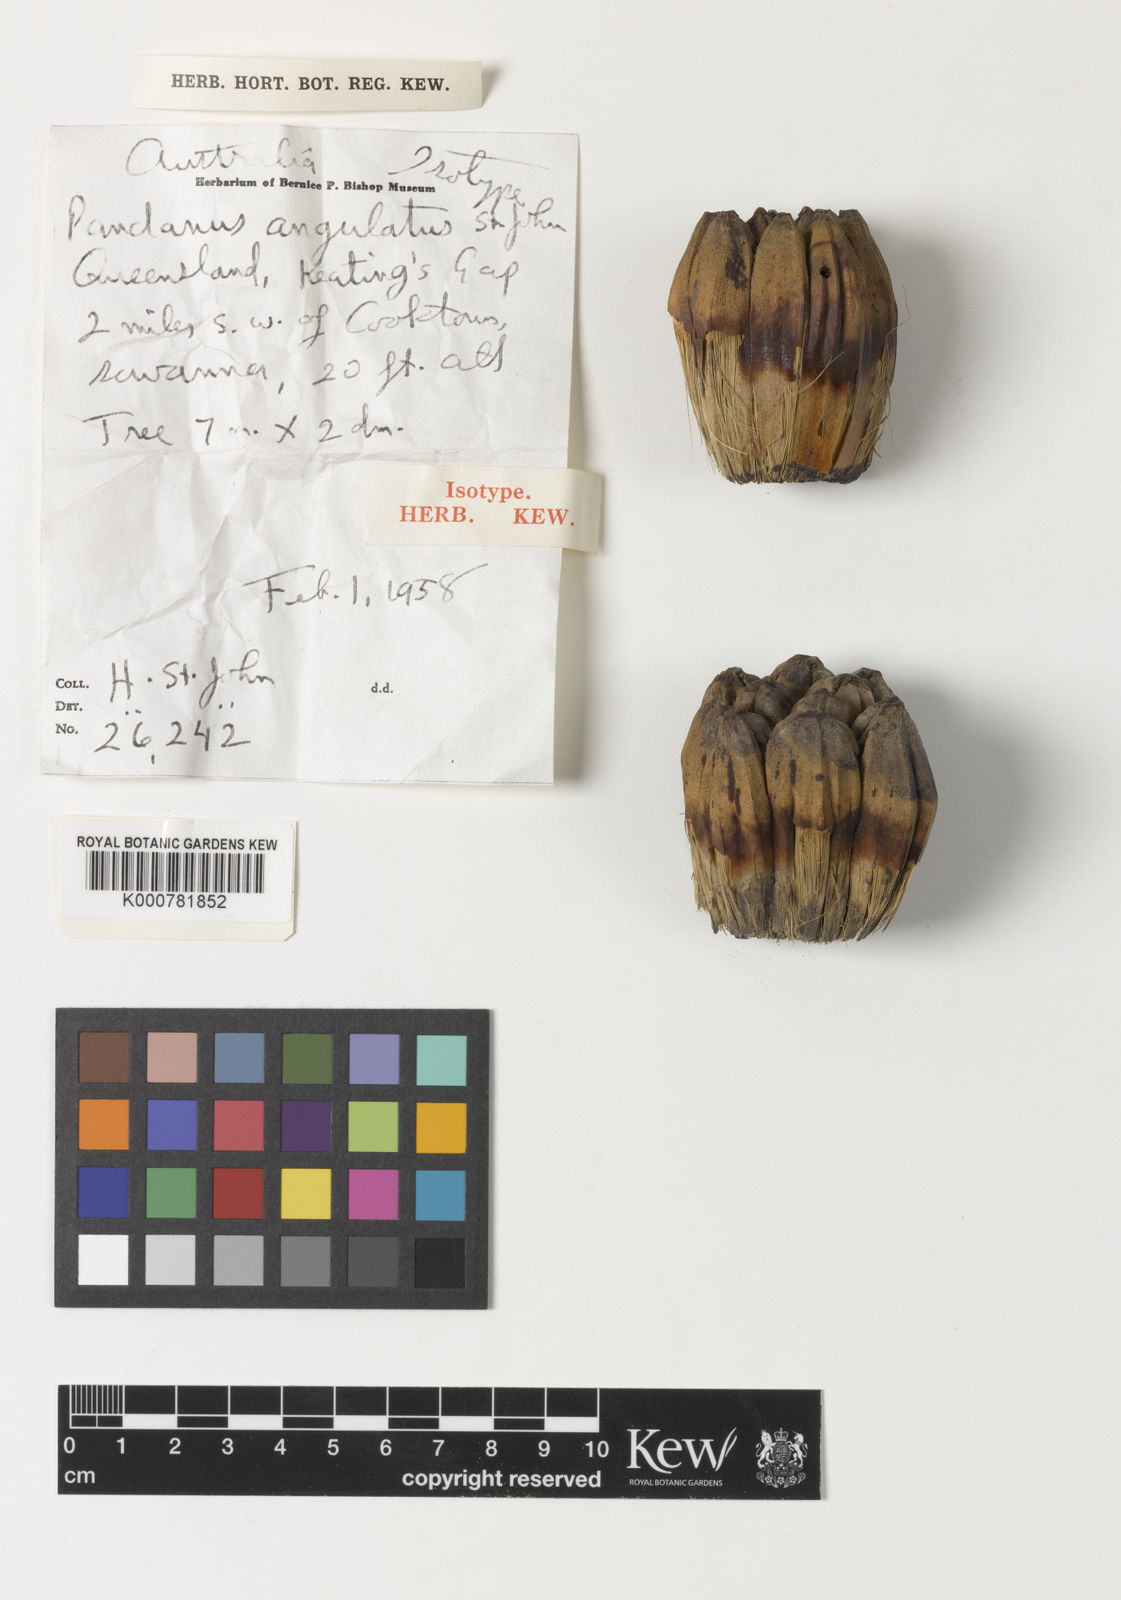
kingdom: Plantae
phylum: Tracheophyta
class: Liliopsida
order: Pandanales
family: Pandanaceae
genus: Pandanus
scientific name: Pandanus cookii
